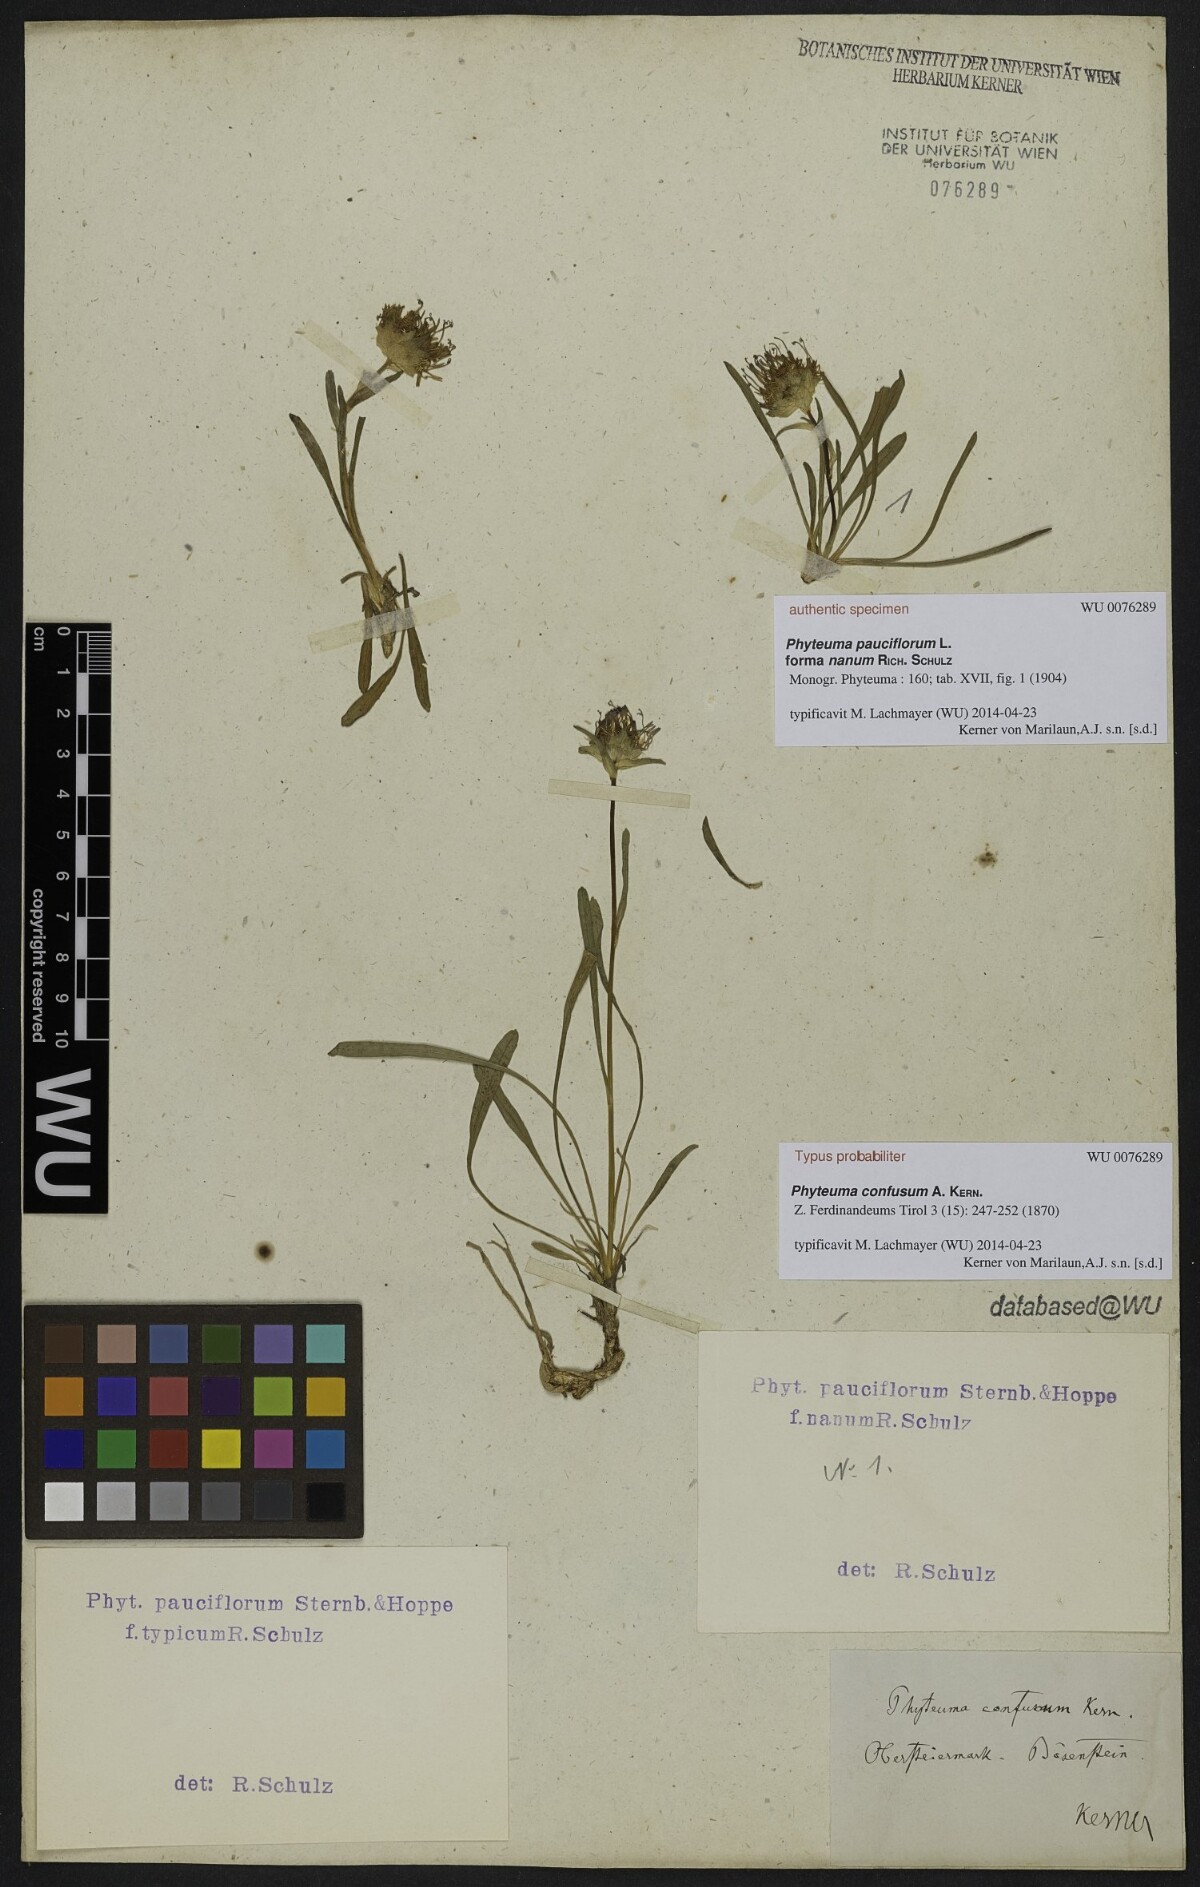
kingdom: Plantae
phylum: Tracheophyta
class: Magnoliopsida
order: Asterales
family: Campanulaceae
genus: Phyteuma
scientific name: Phyteuma confusum
